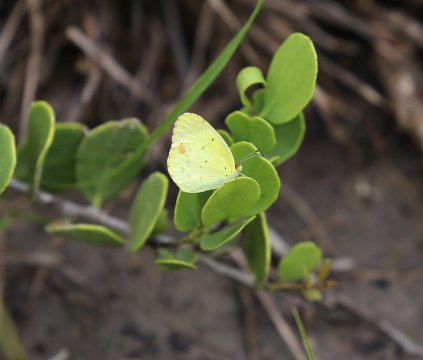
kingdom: Animalia
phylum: Arthropoda
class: Insecta
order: Lepidoptera
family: Pieridae
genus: Pyrisitia
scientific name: Pyrisitia lisa
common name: Little Yellow
